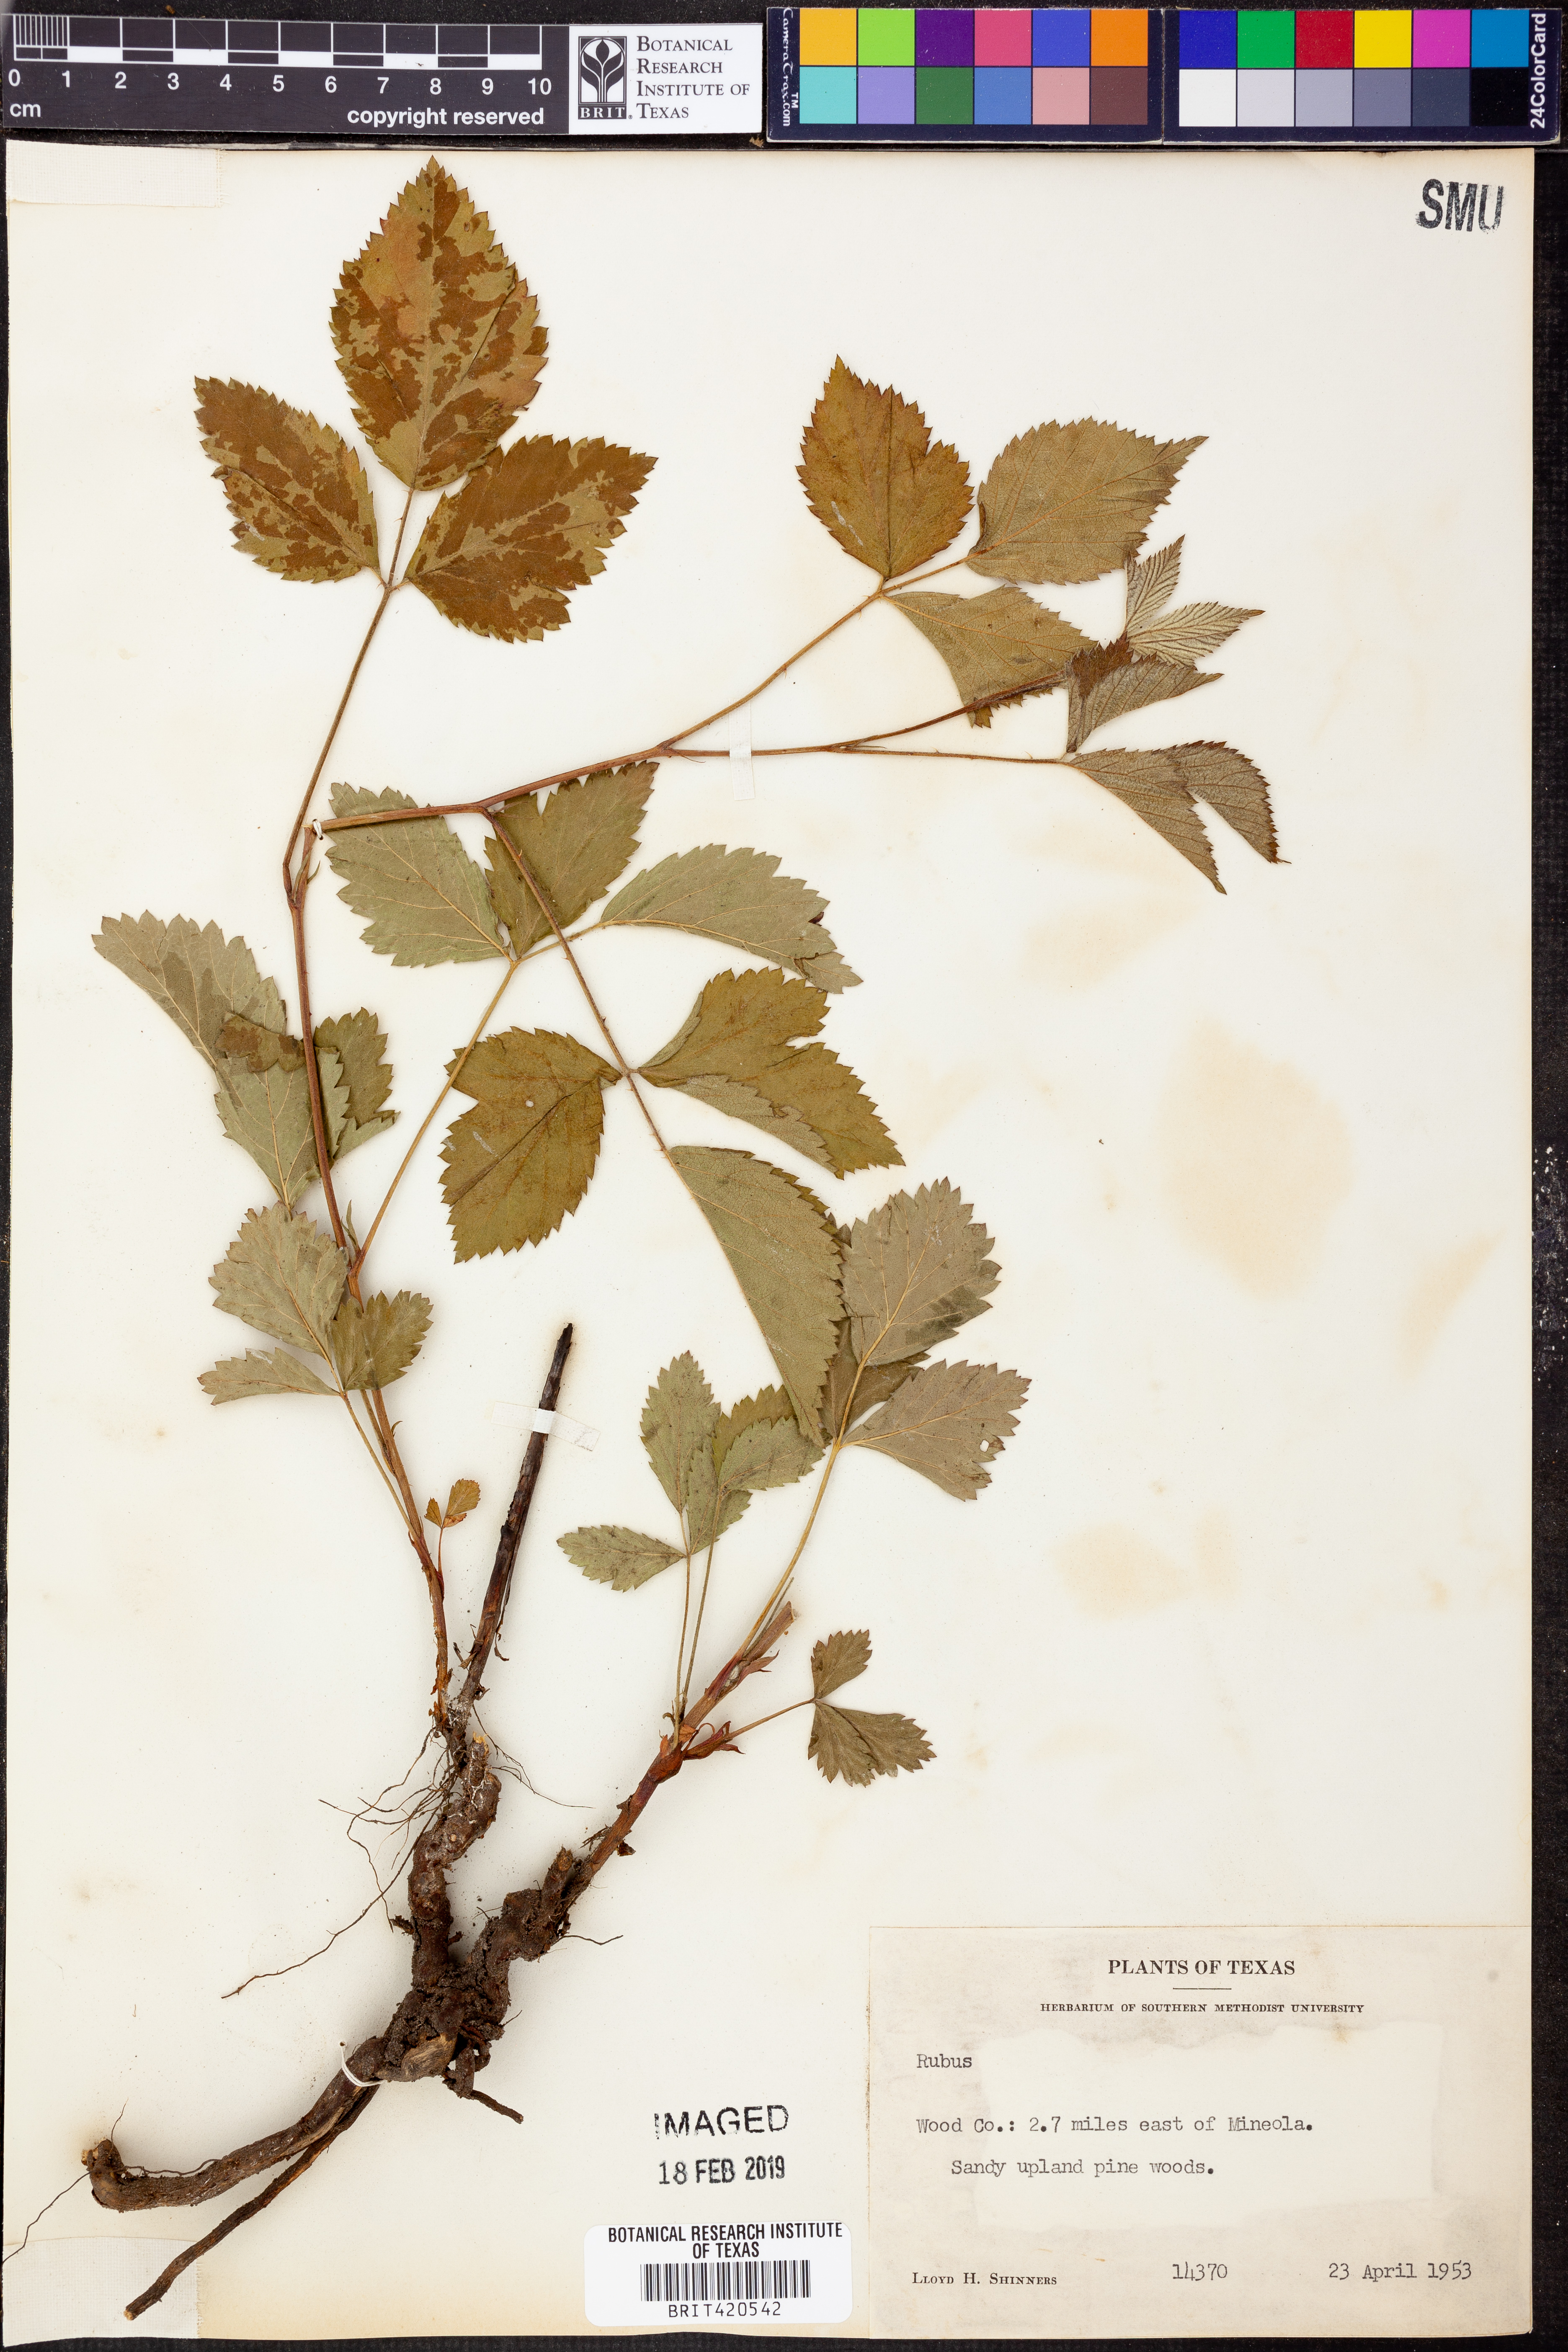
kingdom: Plantae
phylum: Tracheophyta
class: Magnoliopsida
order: Rosales
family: Rosaceae
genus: Rubus
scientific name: Rubus
